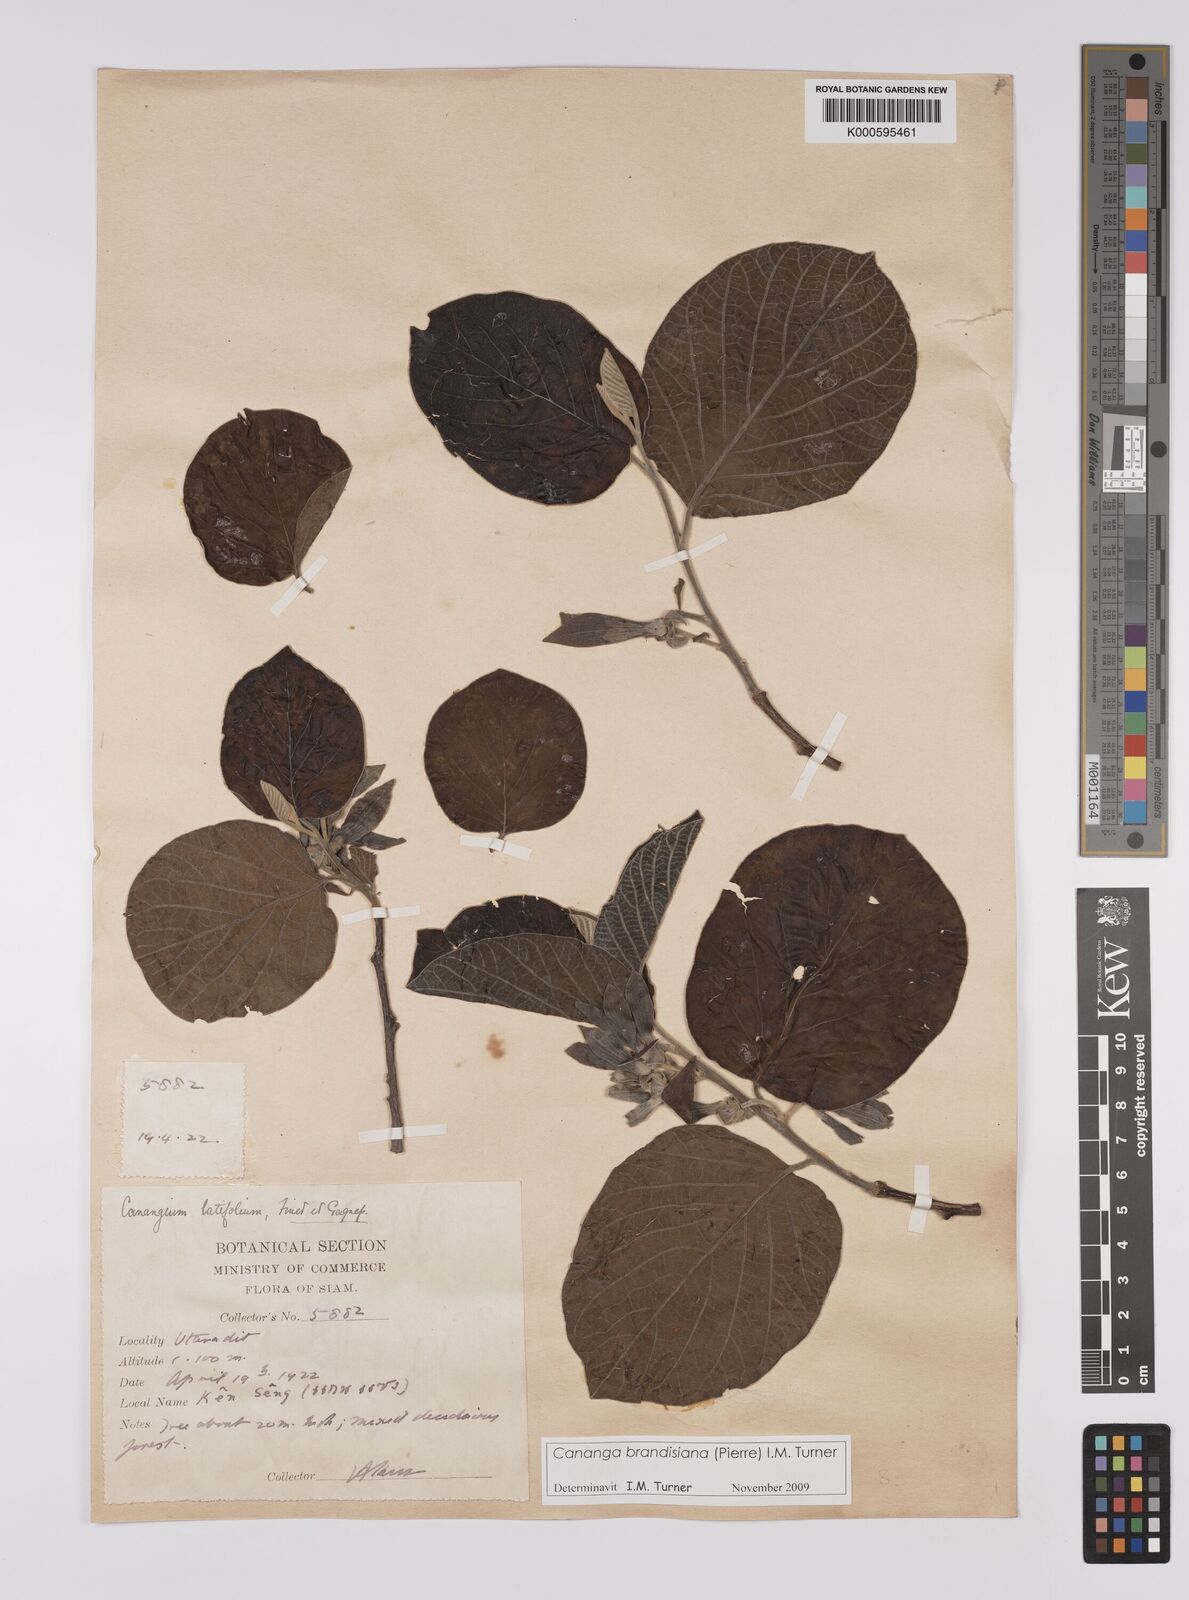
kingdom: Plantae
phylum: Tracheophyta
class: Magnoliopsida
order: Magnoliales
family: Annonaceae
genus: Cananga
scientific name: Cananga brandisiana
